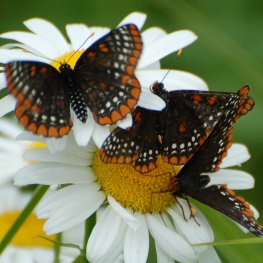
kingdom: Animalia
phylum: Arthropoda
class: Insecta
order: Lepidoptera
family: Nymphalidae
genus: Euphydryas
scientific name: Euphydryas phaeton
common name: Baltimore Checkerspot
